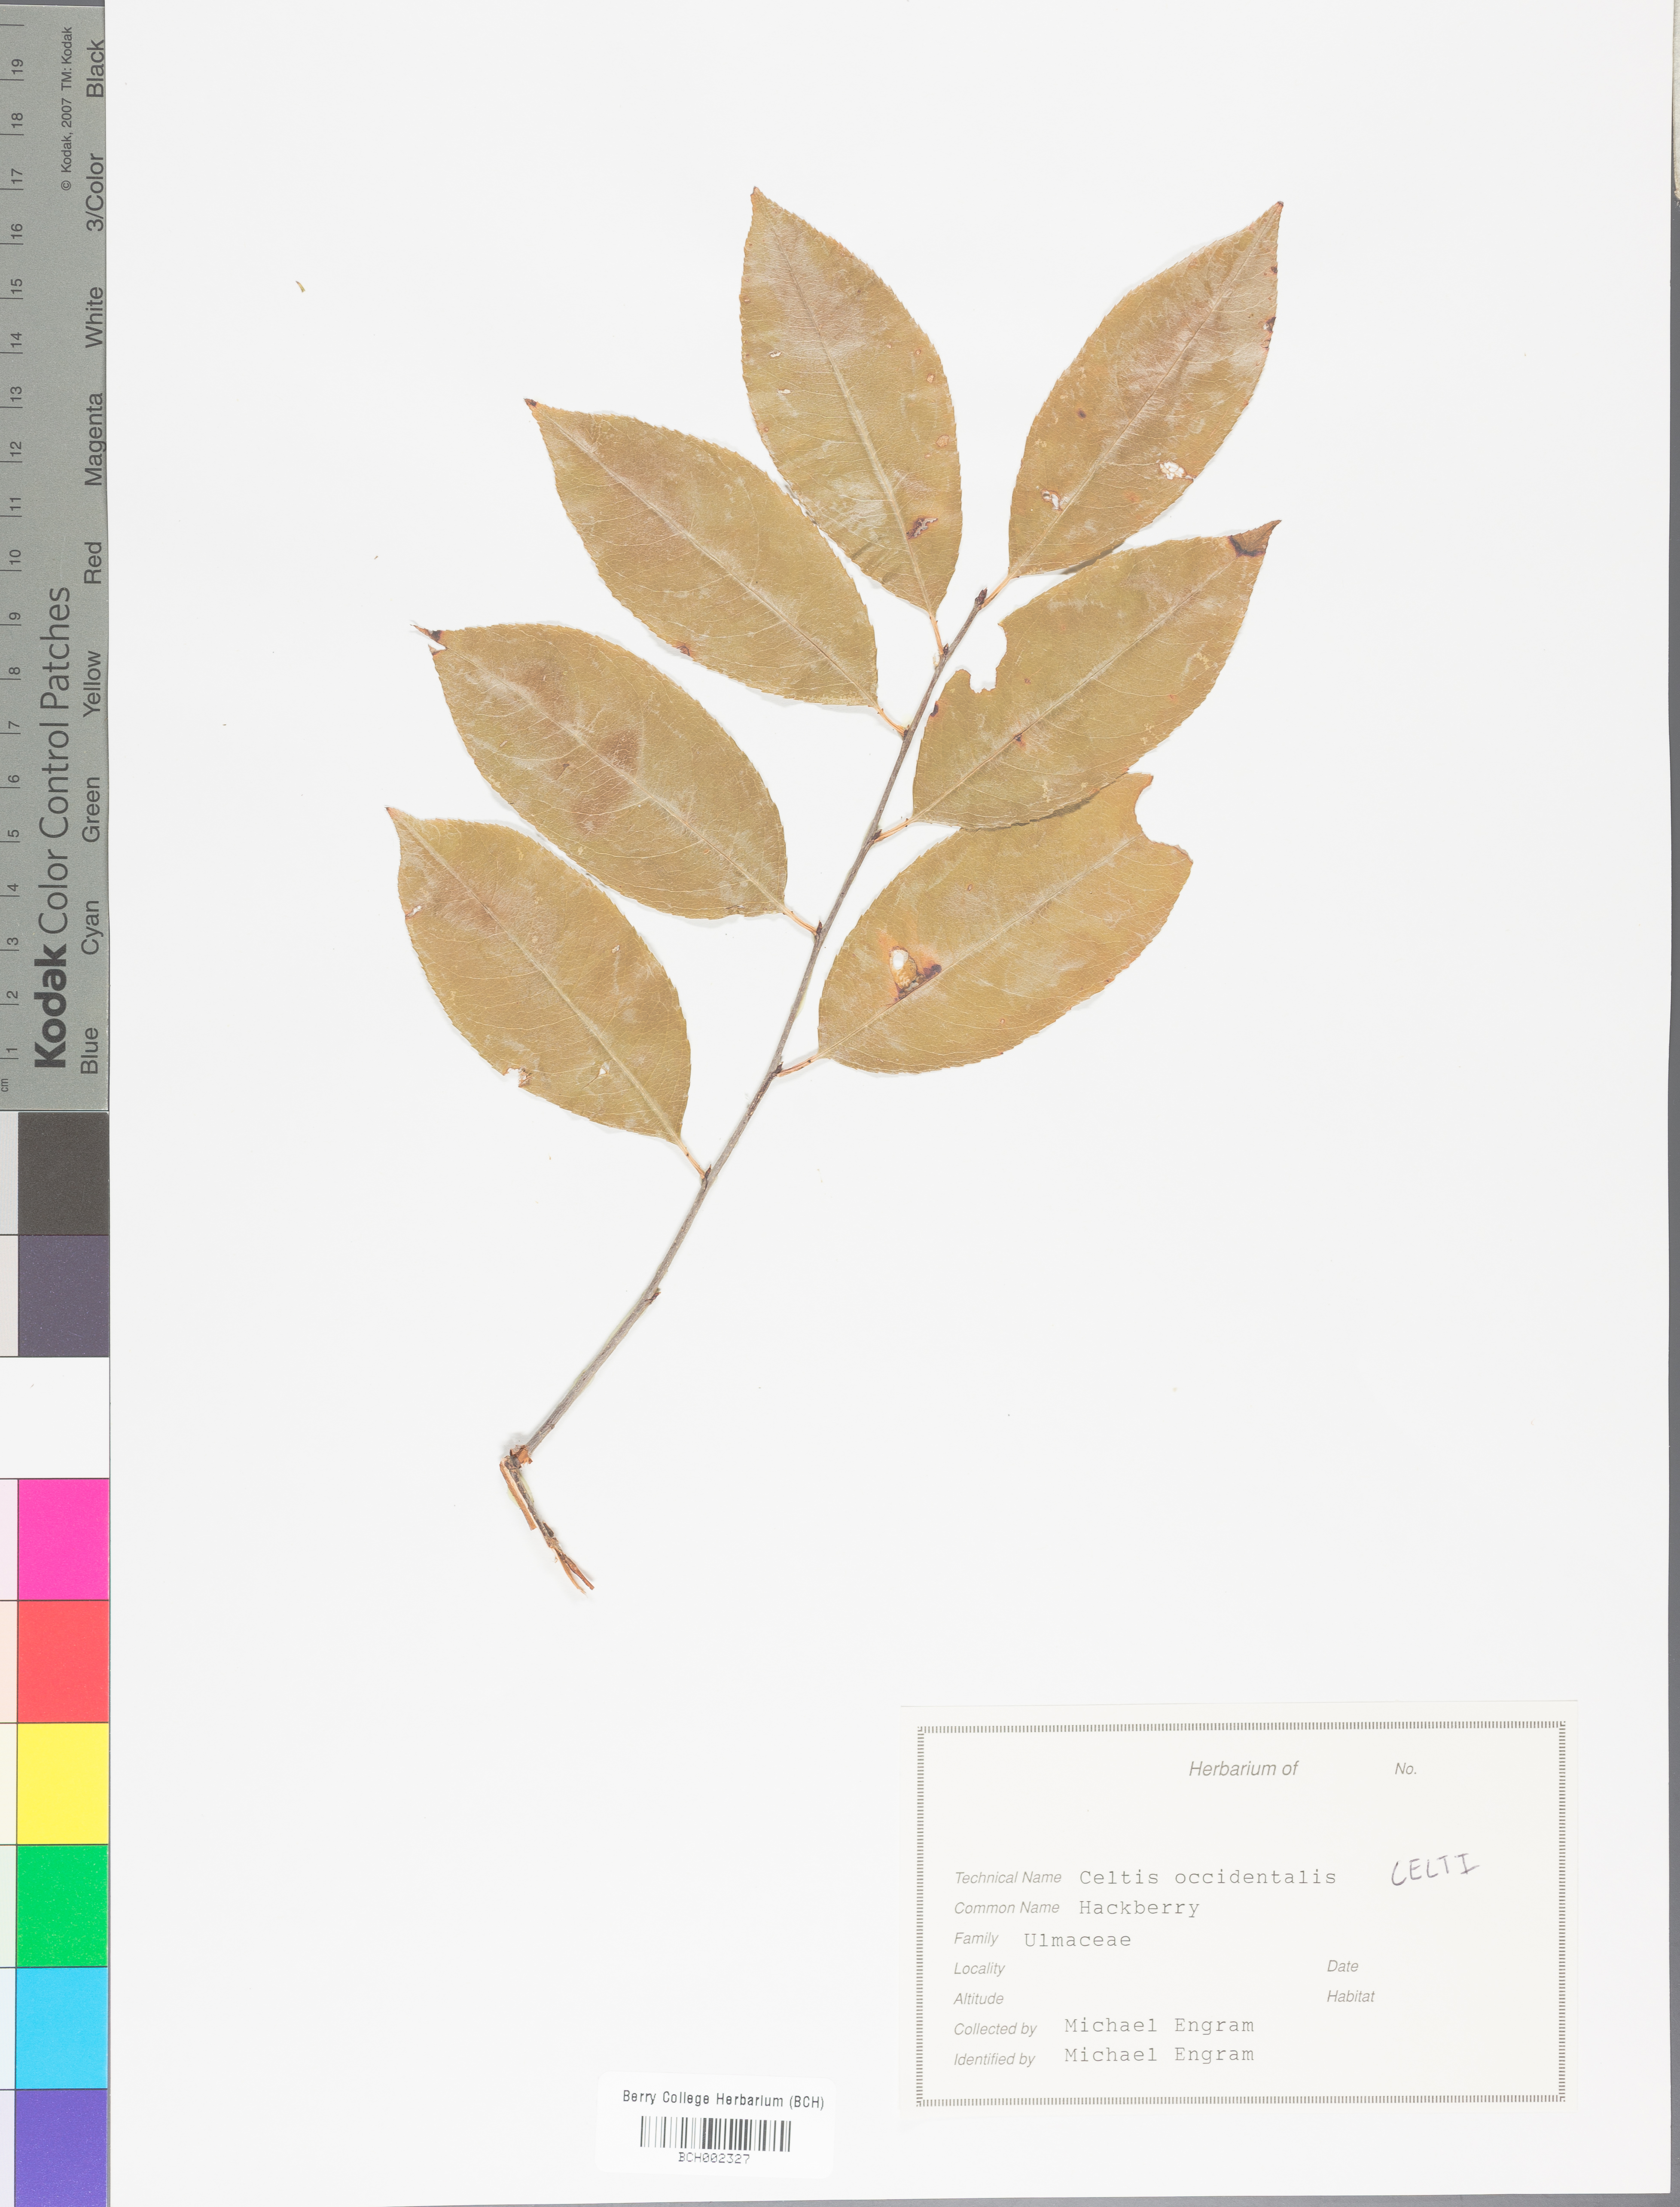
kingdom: Plantae
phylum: Tracheophyta
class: Magnoliopsida
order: Rosales
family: Cannabaceae
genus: Celtis
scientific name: Celtis
